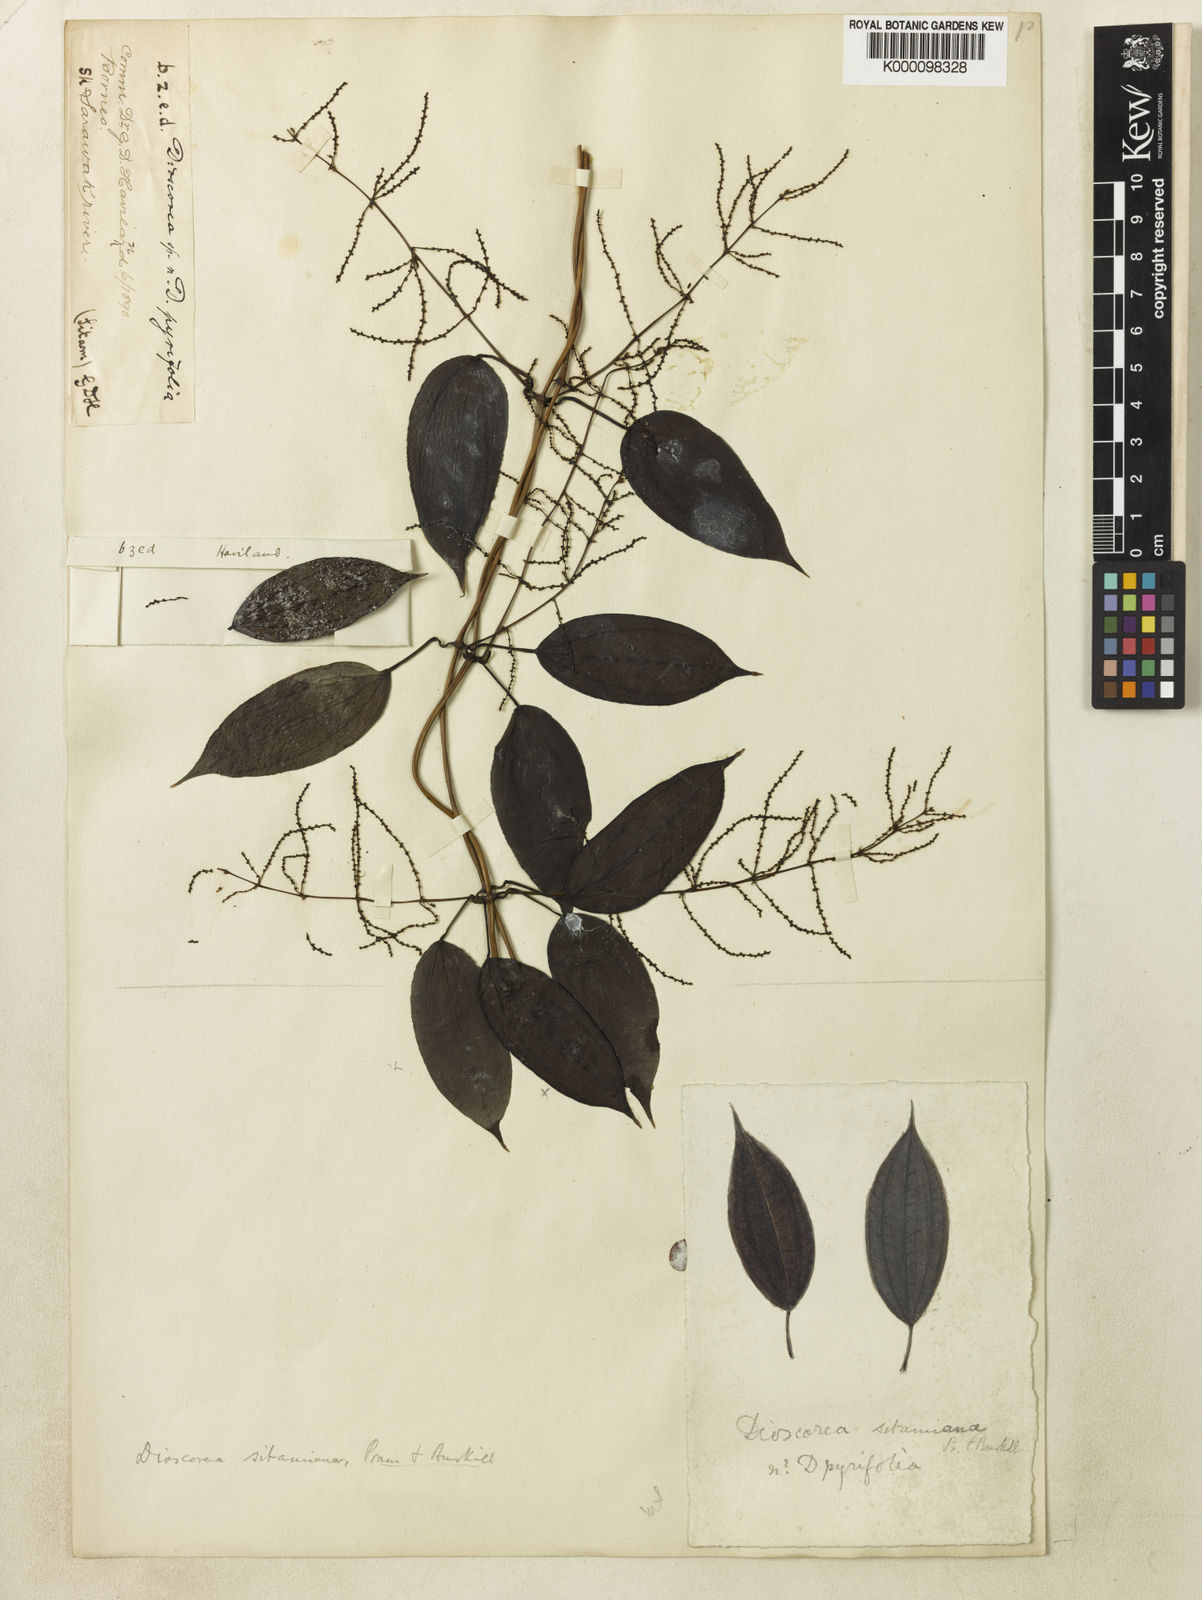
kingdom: Plantae
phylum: Tracheophyta
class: Liliopsida
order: Dioscoreales
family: Dioscoreaceae
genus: Dioscorea
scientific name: Dioscorea sitamiana
